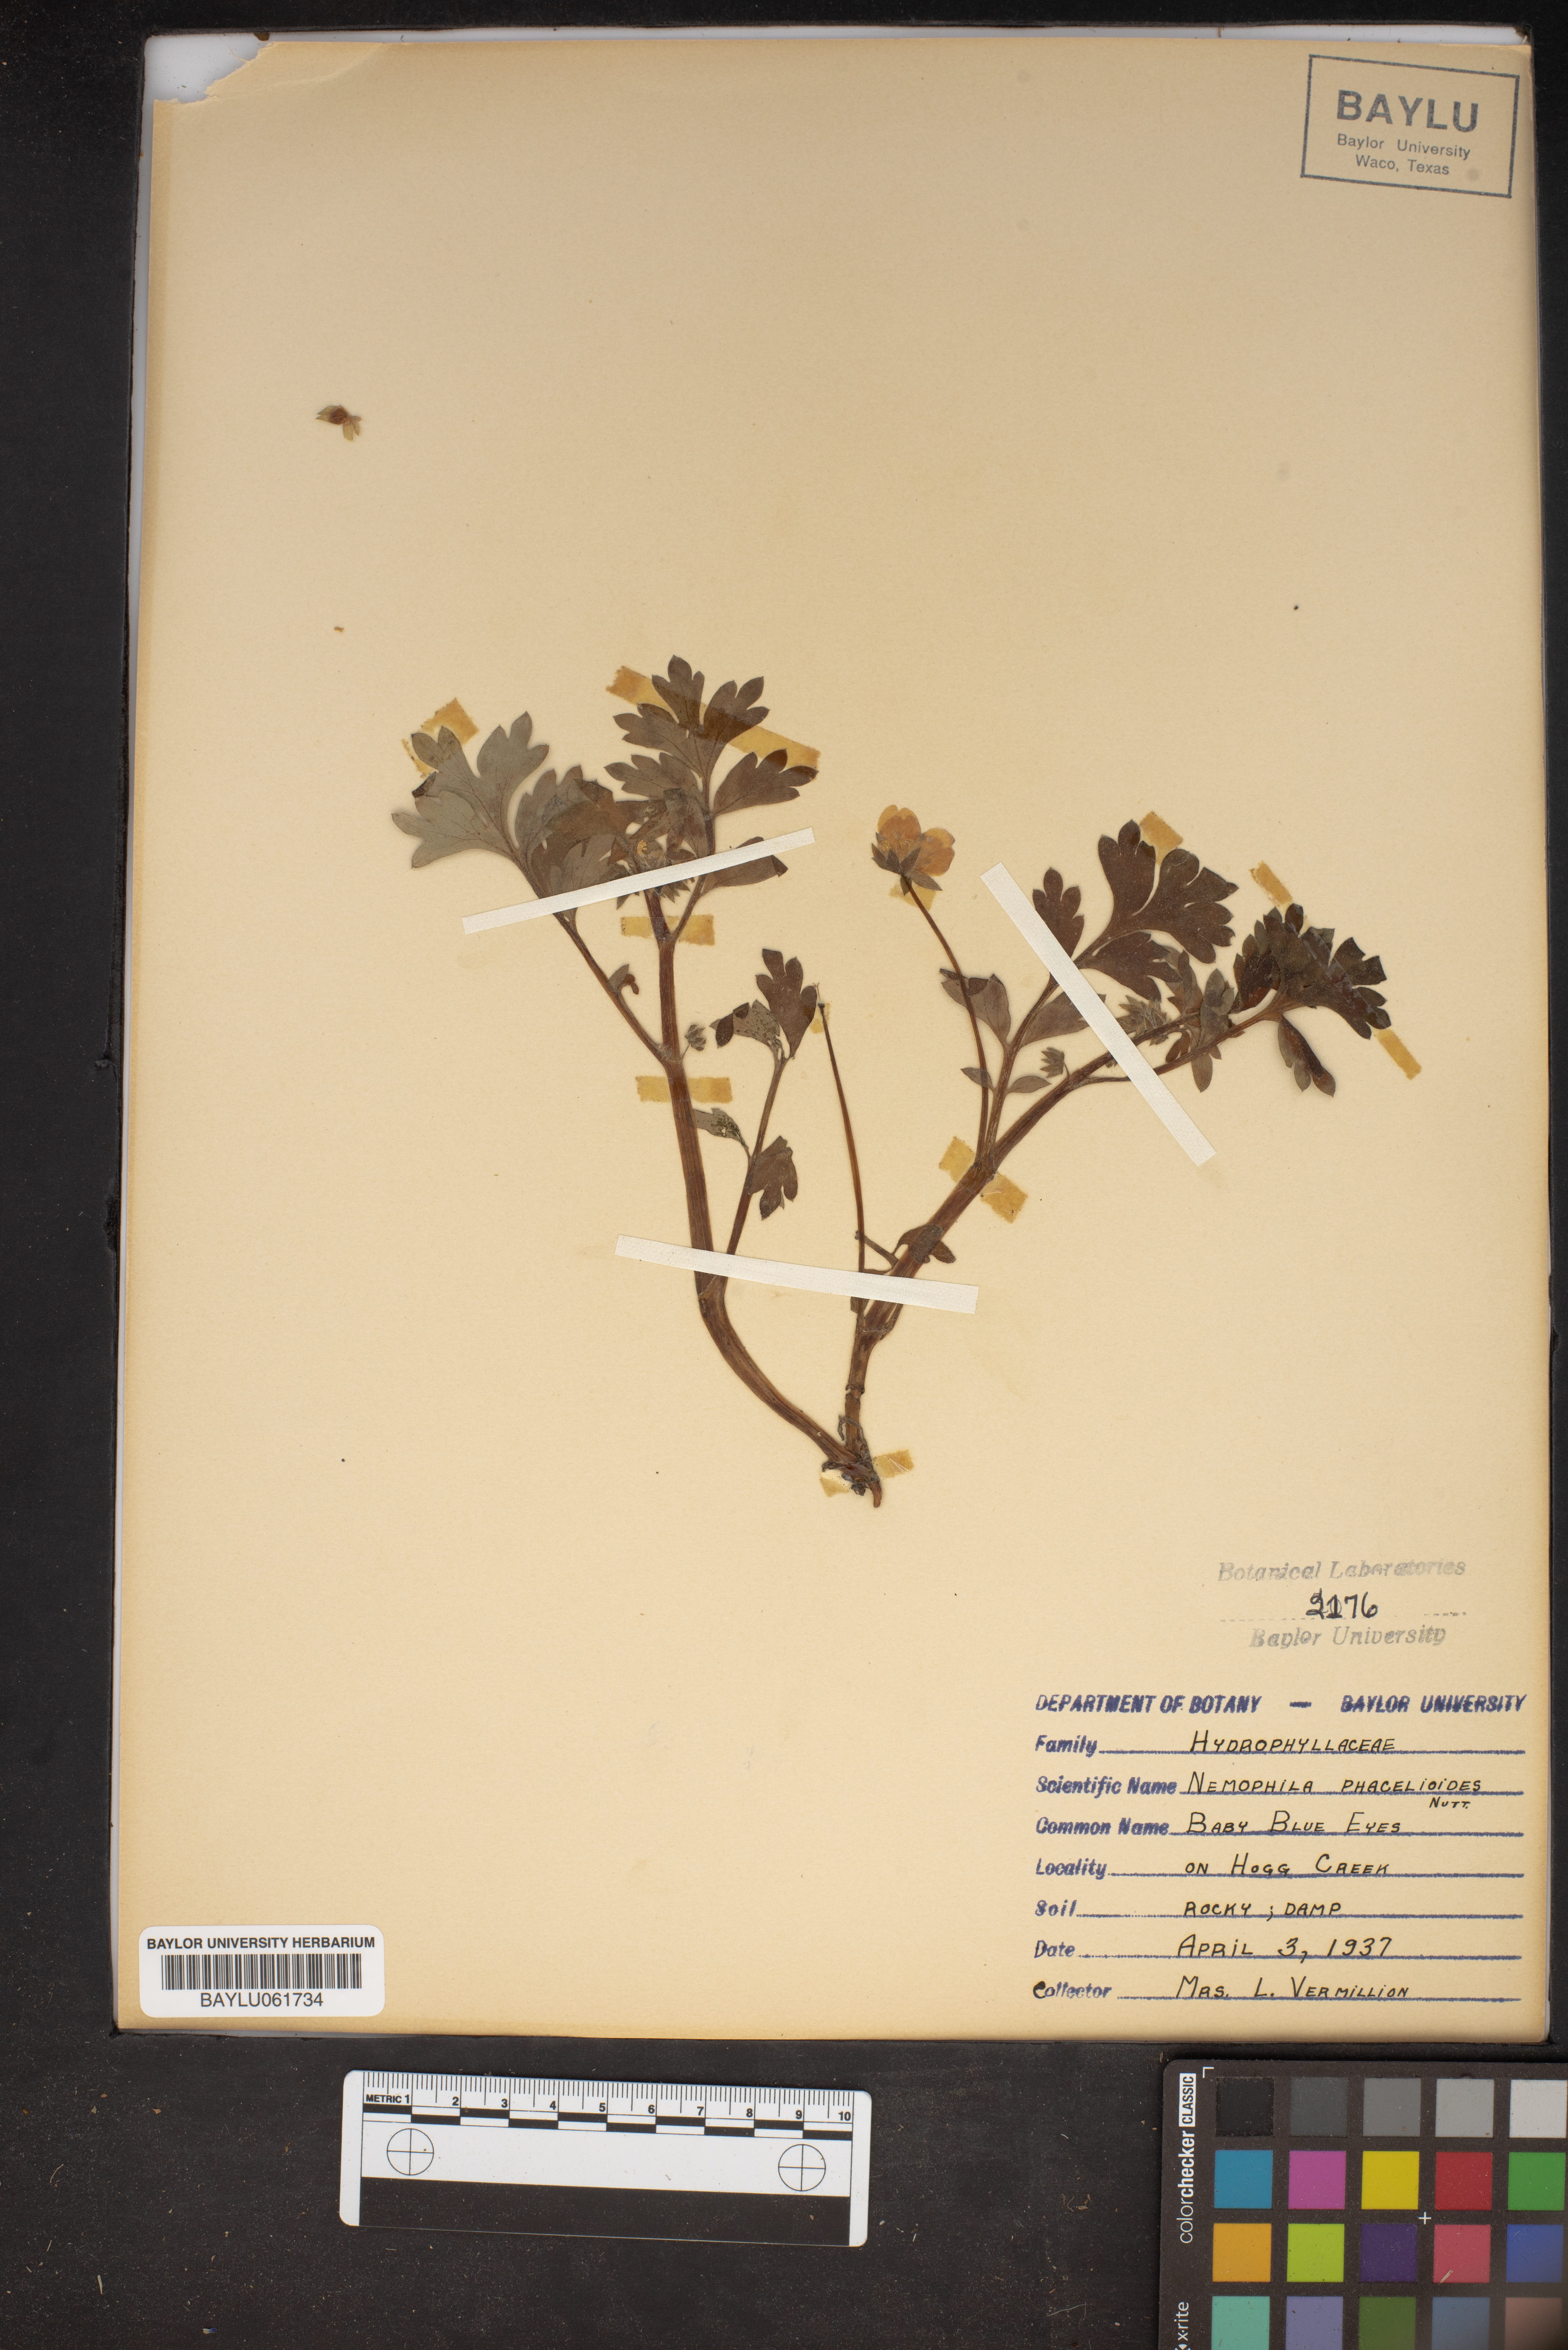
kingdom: Plantae
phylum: Tracheophyta
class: Magnoliopsida
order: Boraginales
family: Hydrophyllaceae
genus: Nemophila
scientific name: Nemophila phacelioides
